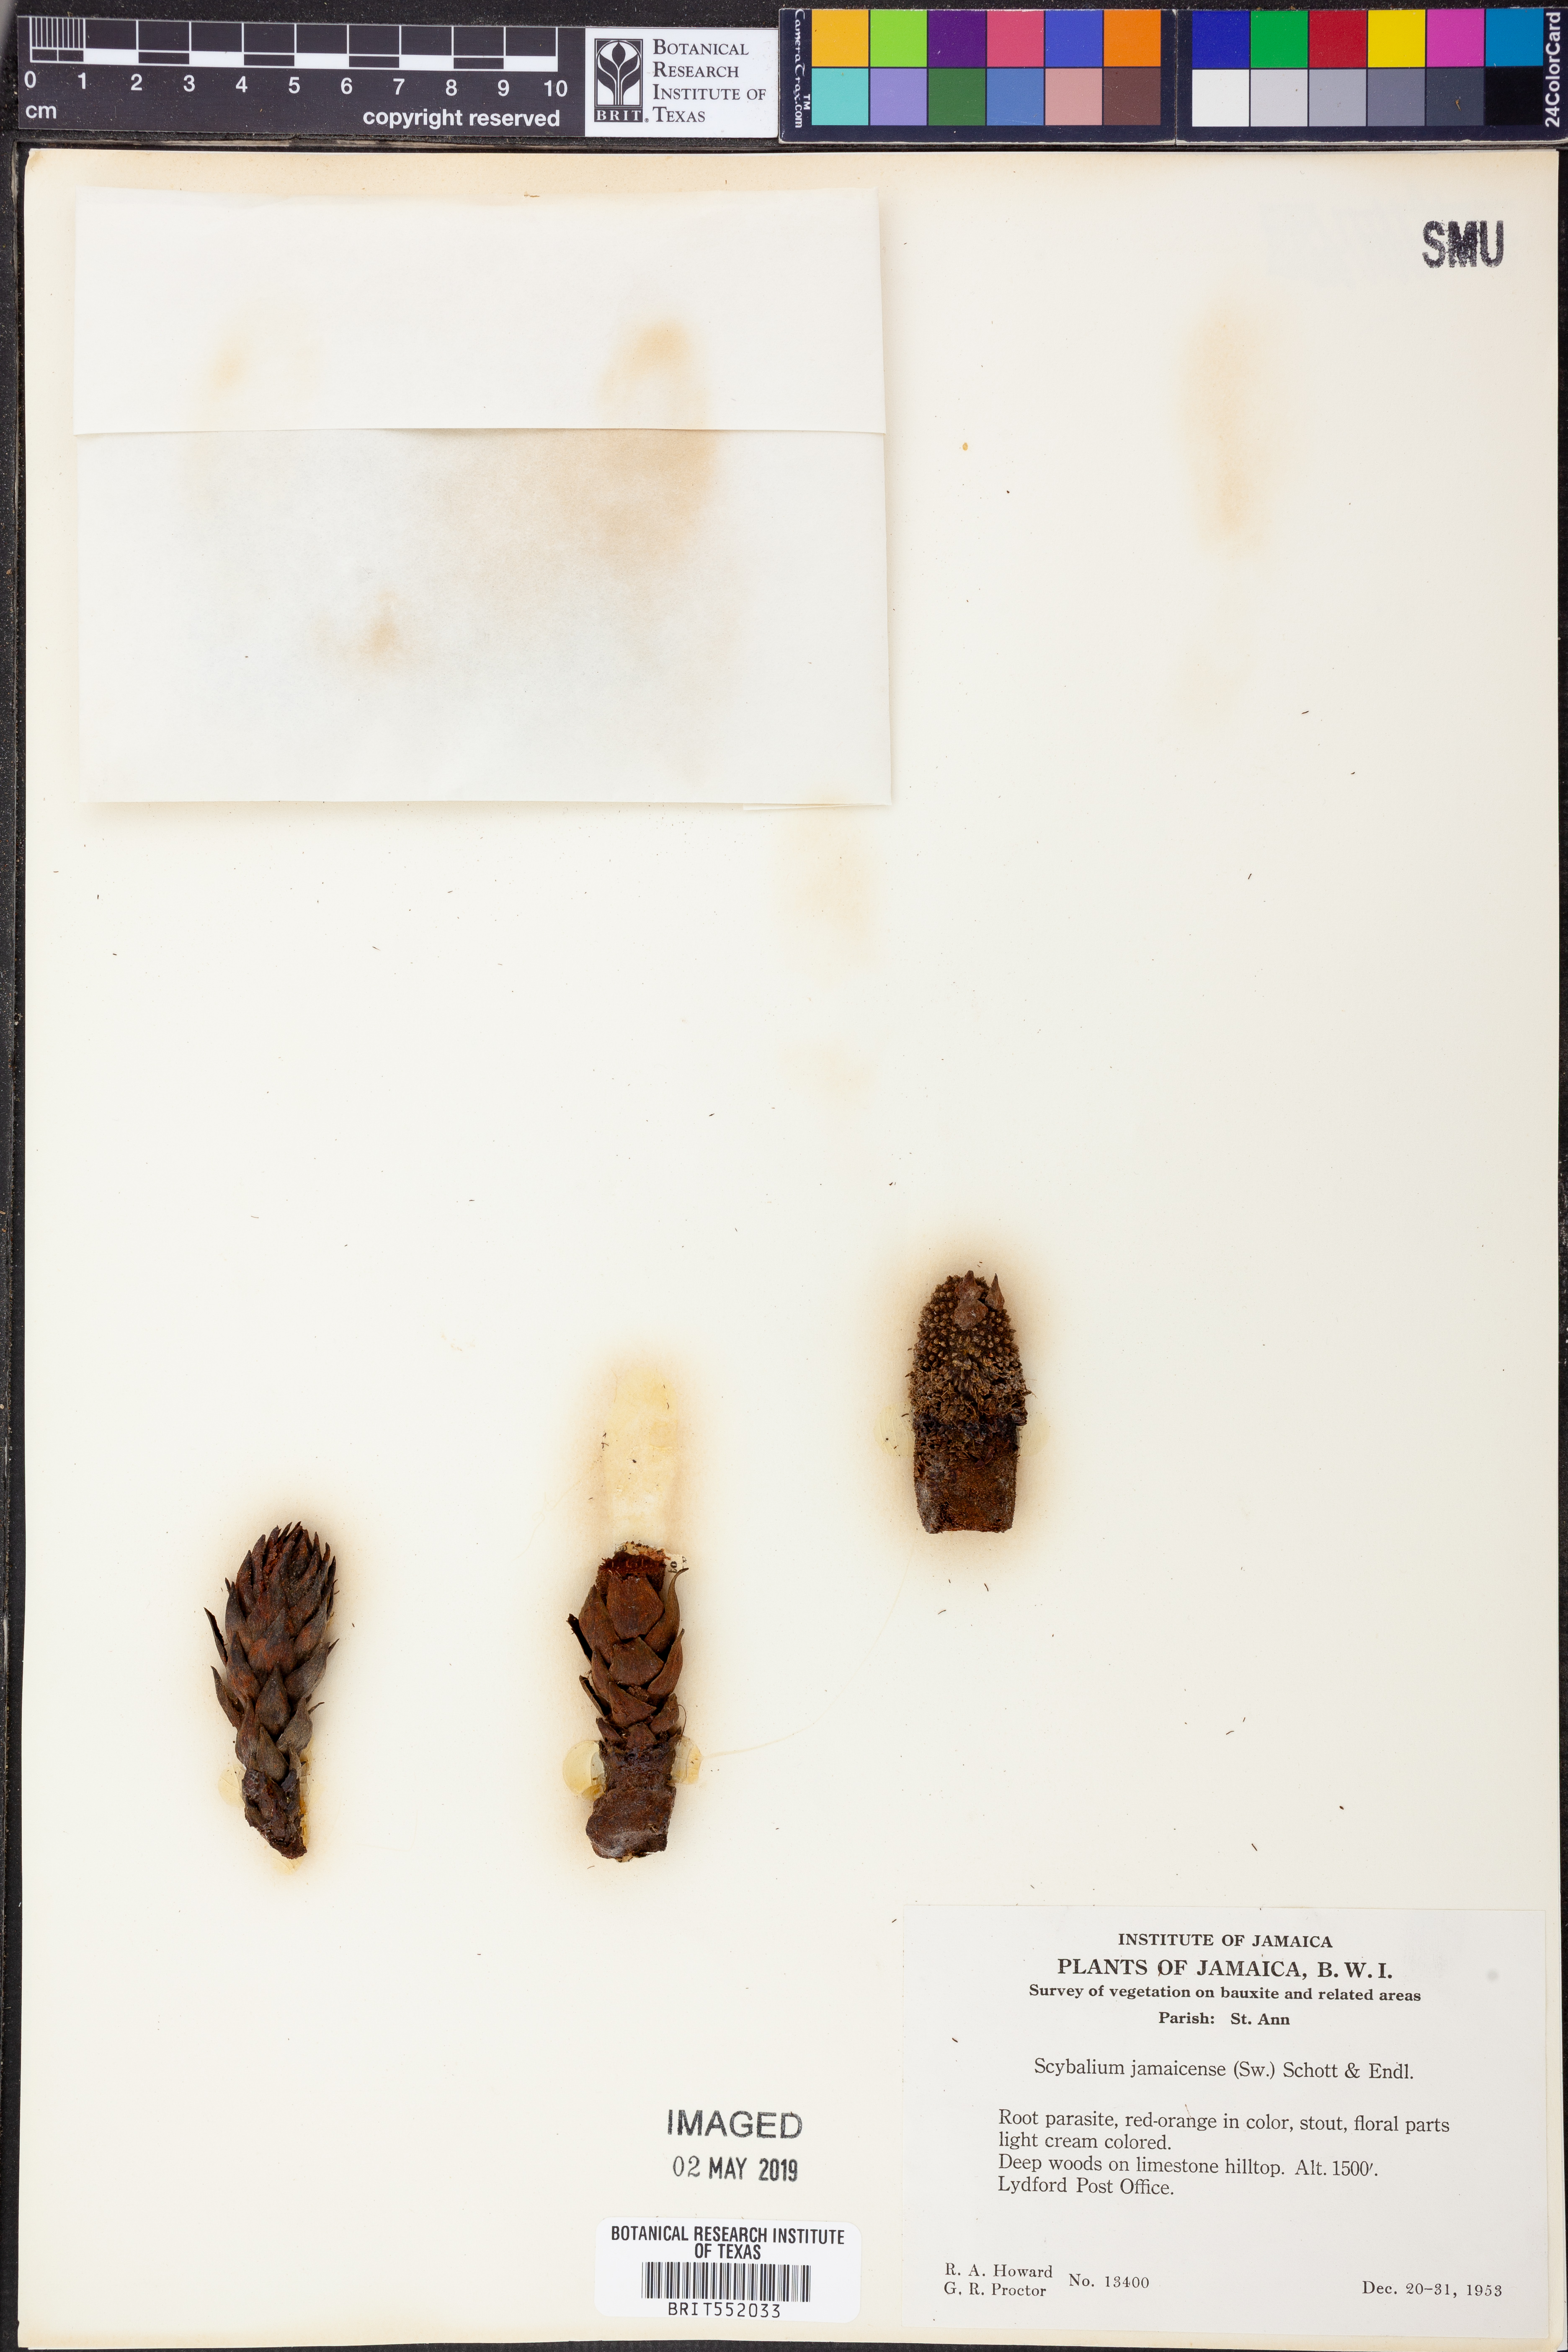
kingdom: Plantae
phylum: Tracheophyta
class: Magnoliopsida
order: Santalales
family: Balanophoraceae
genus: Scybalium
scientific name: Scybalium jamaicense
